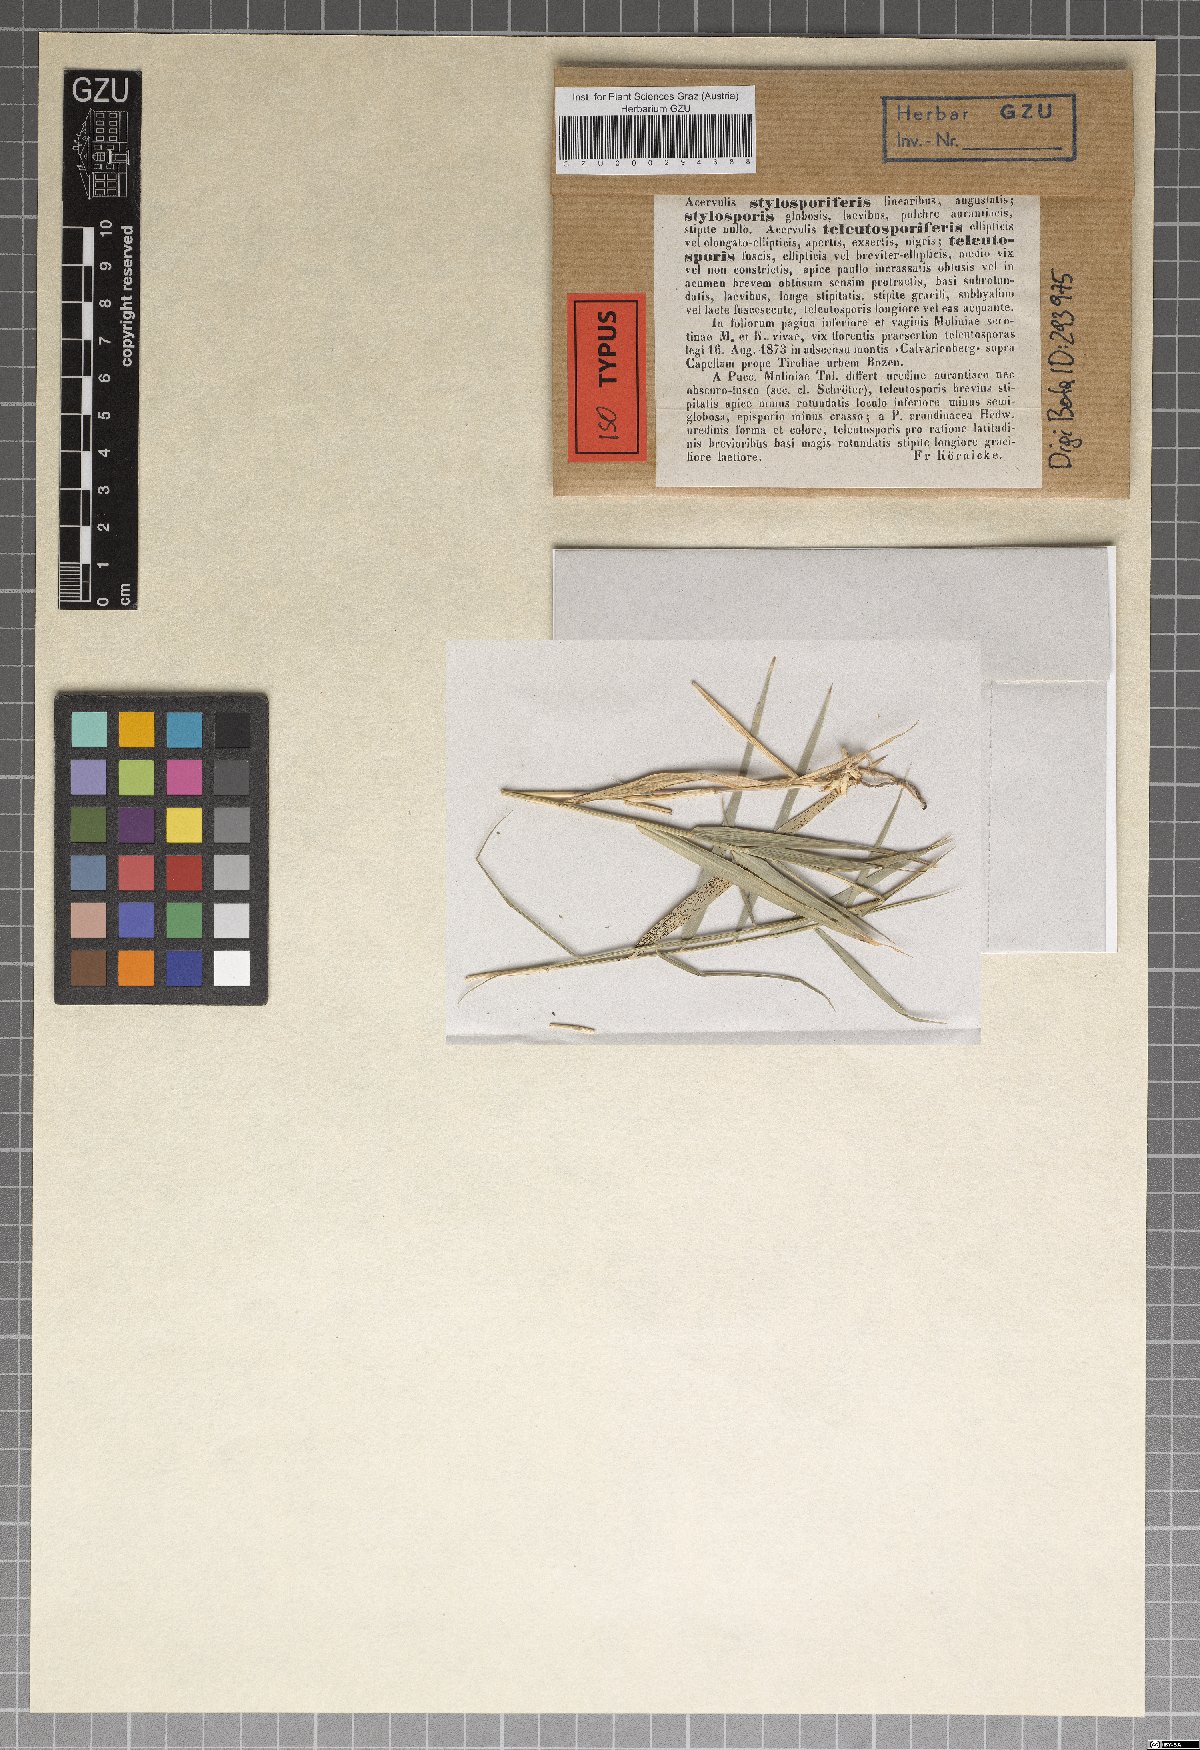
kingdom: Fungi
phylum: Basidiomycota
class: Pucciniomycetes
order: Pucciniales
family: Pucciniaceae
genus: Puccinia
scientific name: Puccinia australis
